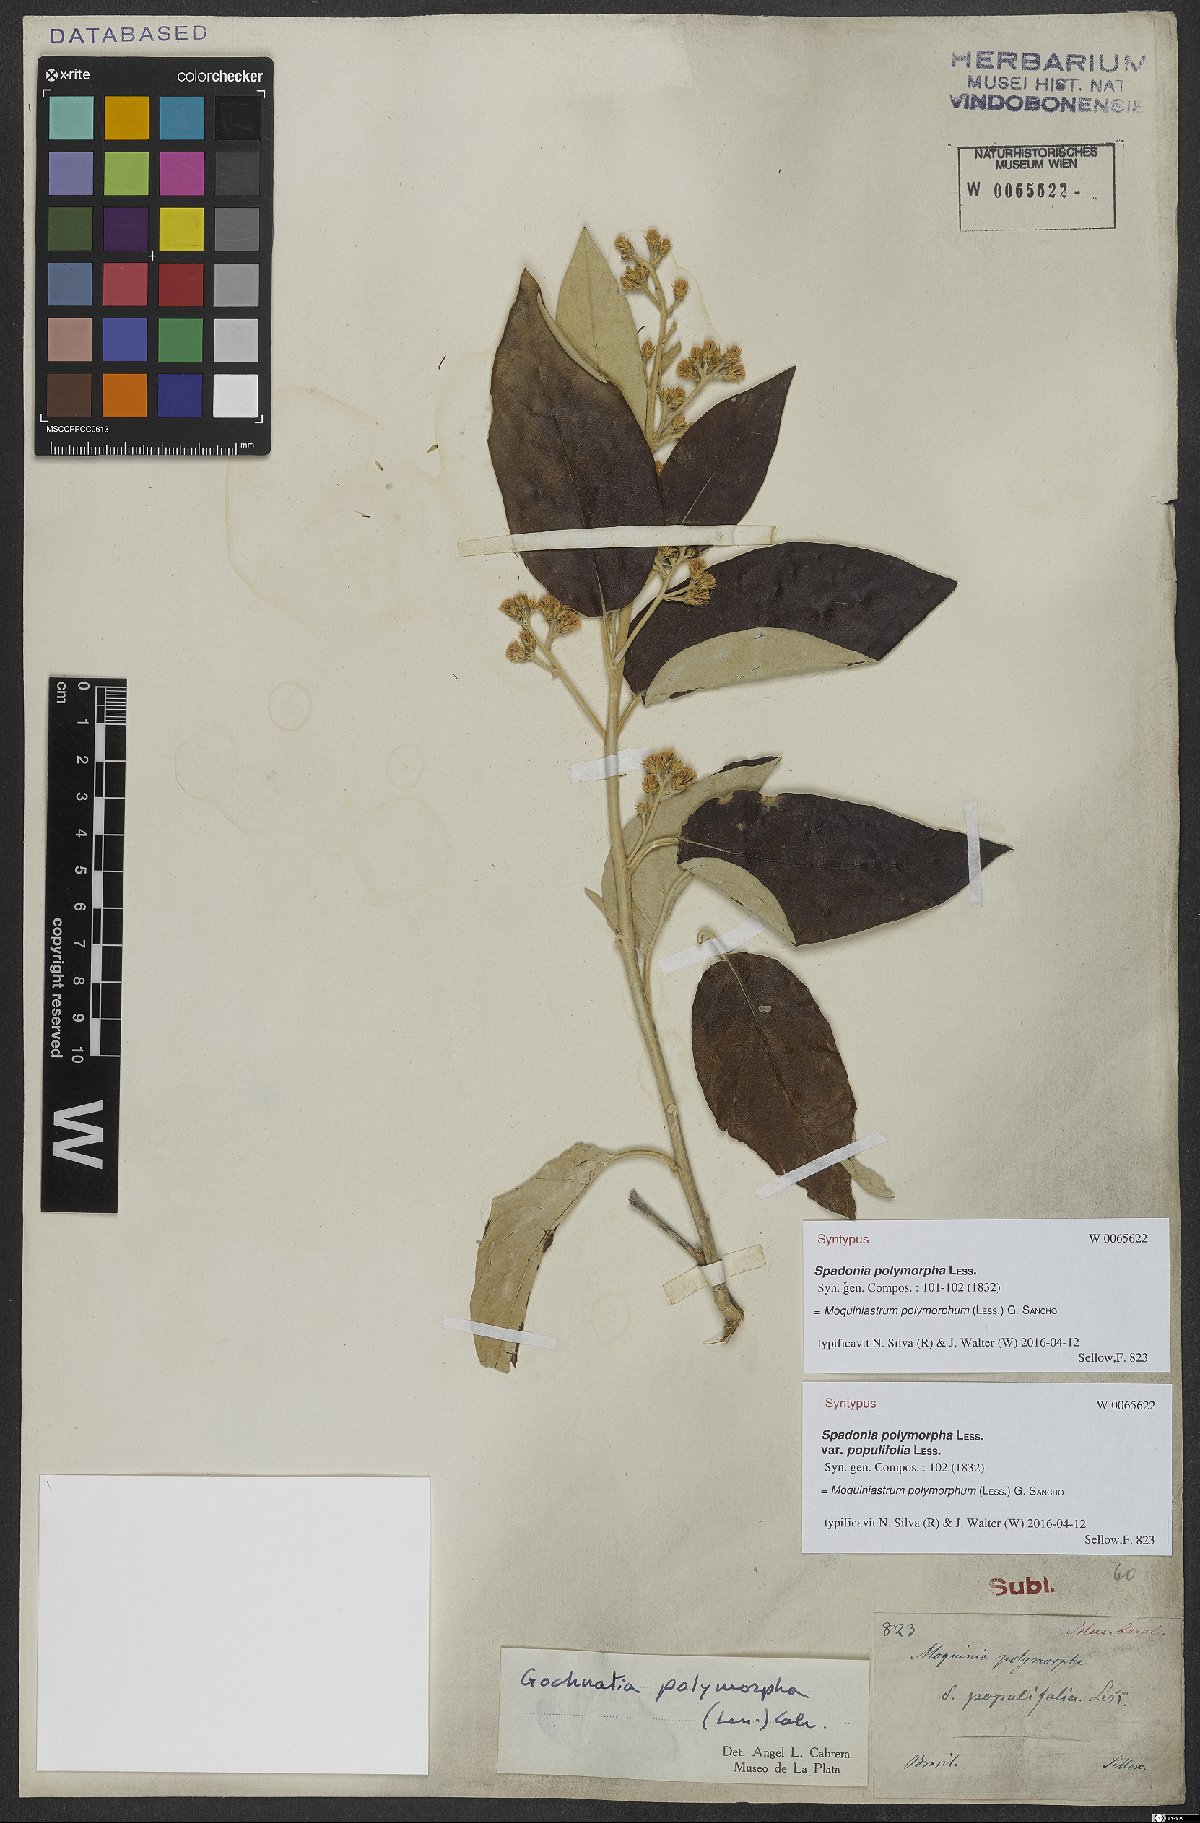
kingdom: Plantae
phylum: Tracheophyta
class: Magnoliopsida
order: Asterales
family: Asteraceae
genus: Moquiniastrum
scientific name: Moquiniastrum polymorphum
